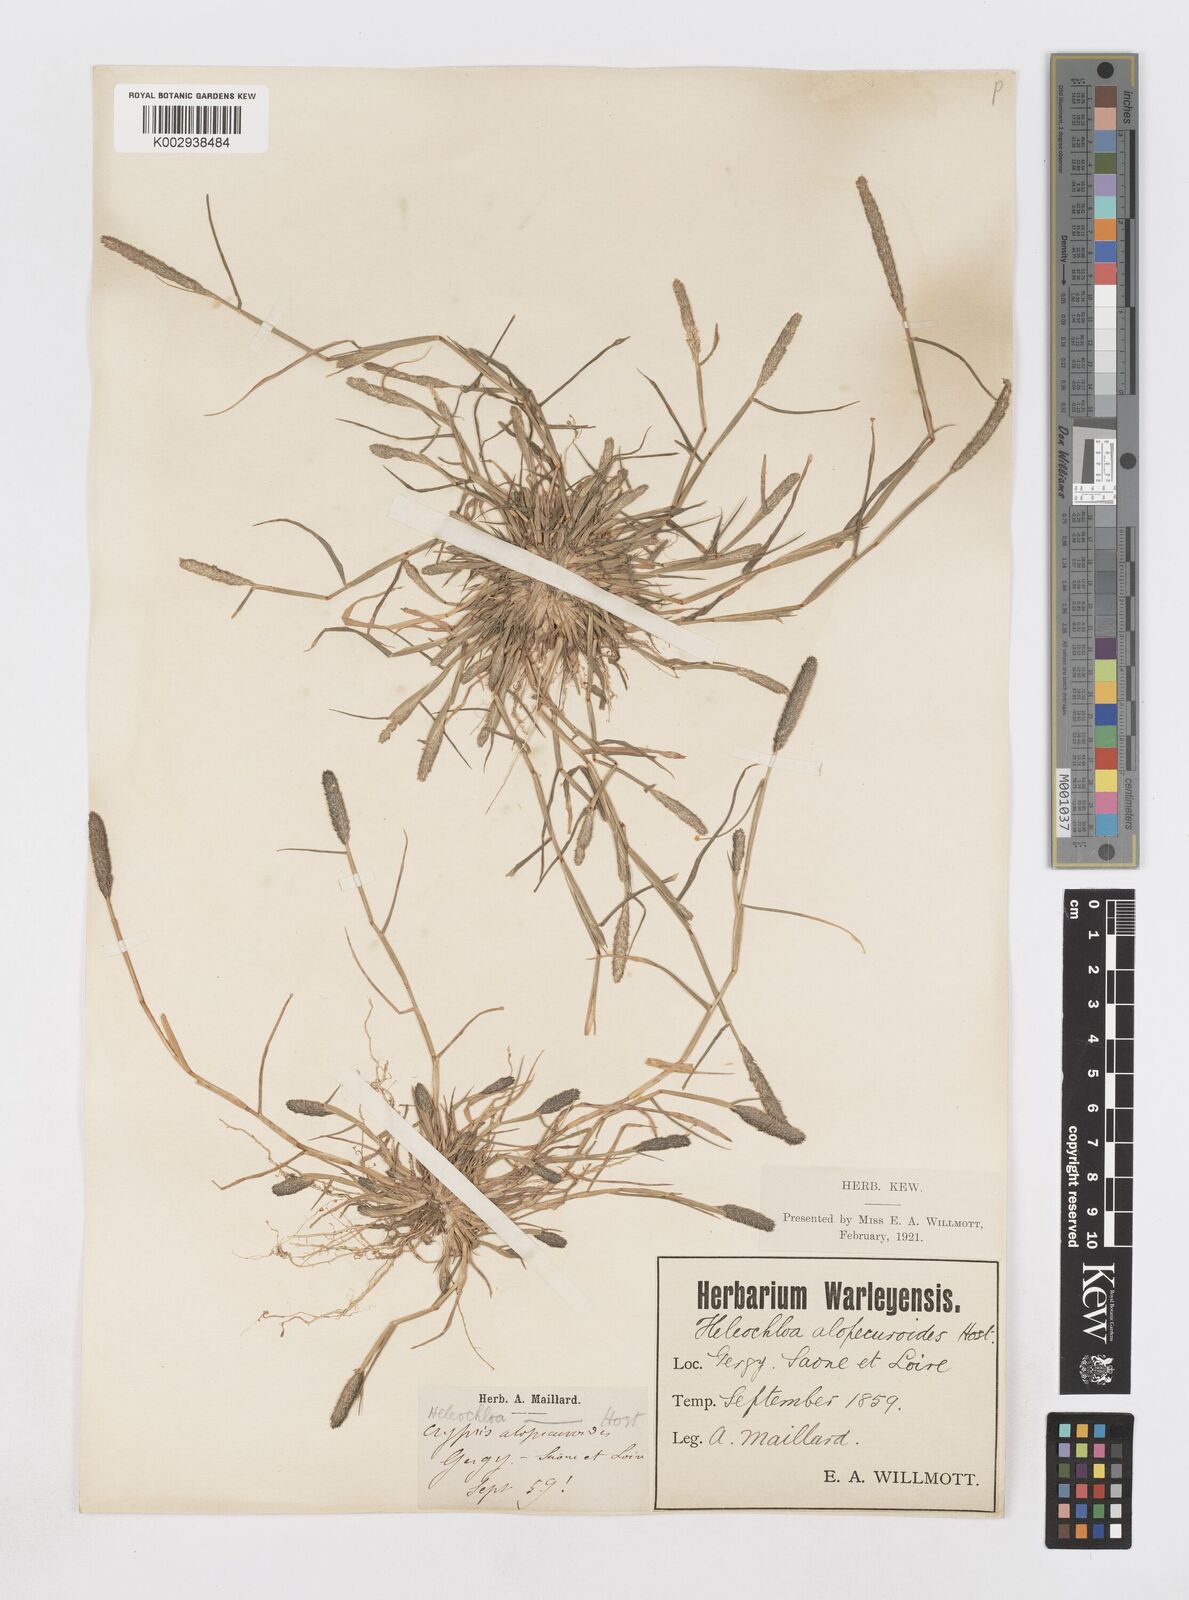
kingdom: Plantae
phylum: Tracheophyta
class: Liliopsida
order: Poales
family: Poaceae
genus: Sporobolus
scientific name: Sporobolus alopecuroides
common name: Foxtail pricklegrass
